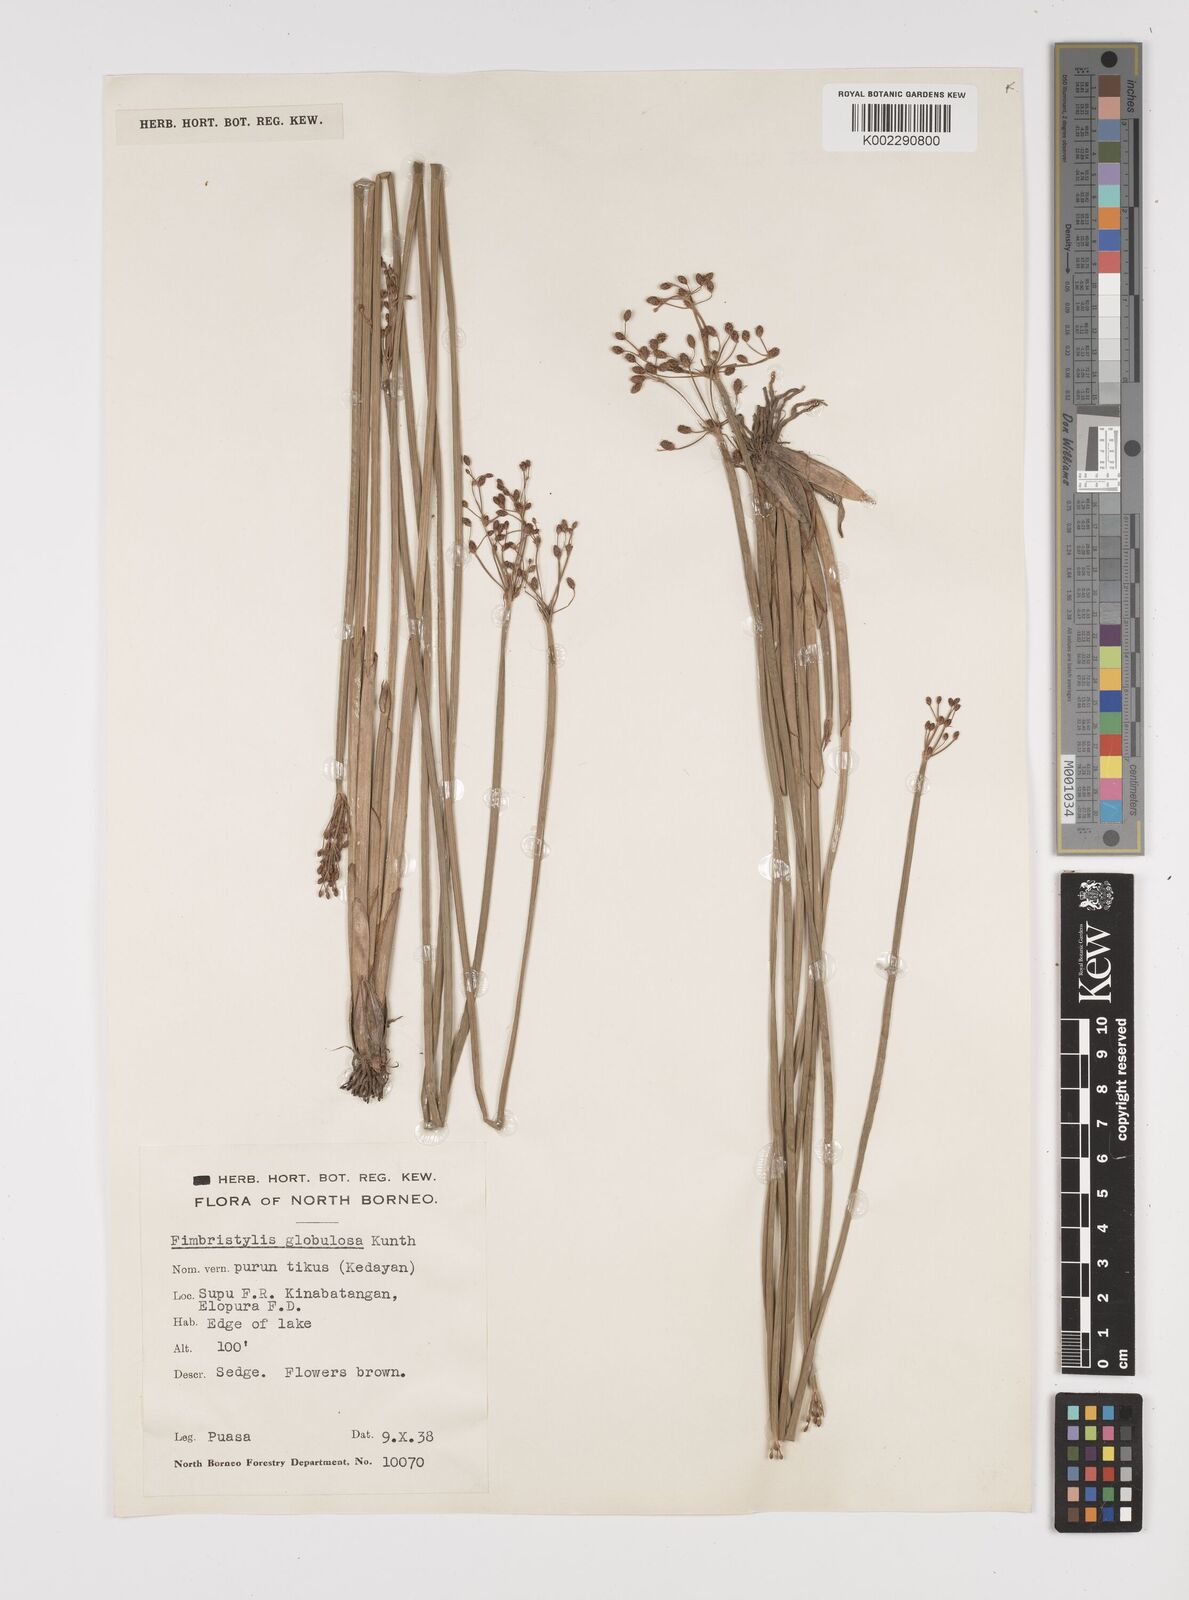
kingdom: Plantae
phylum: Tracheophyta
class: Liliopsida
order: Poales
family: Cyperaceae
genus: Fimbristylis
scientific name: Fimbristylis umbellaris
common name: Globular fimbristylis
